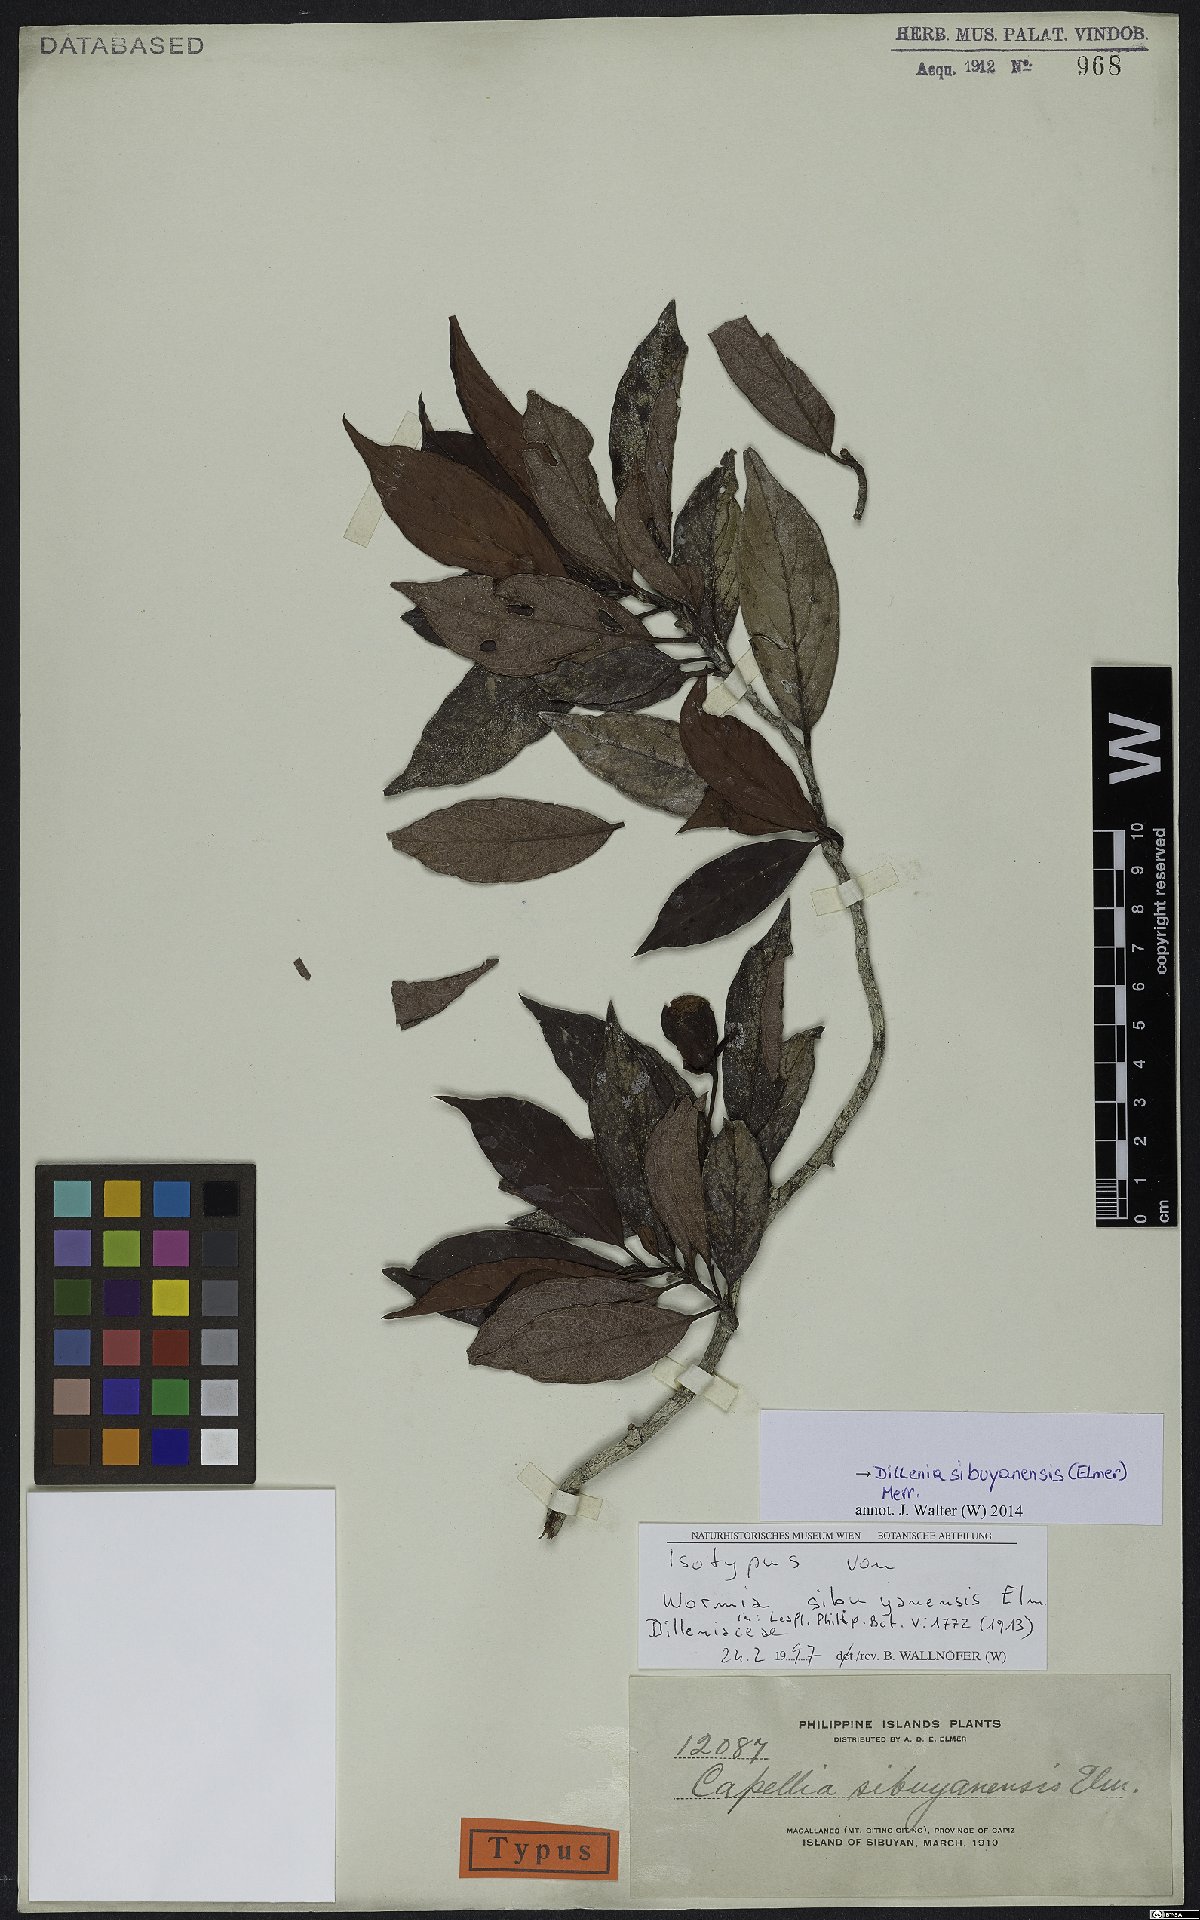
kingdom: Plantae
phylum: Tracheophyta
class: Magnoliopsida
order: Dilleniales
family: Dilleniaceae
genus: Dillenia
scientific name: Dillenia sibuyanensis
